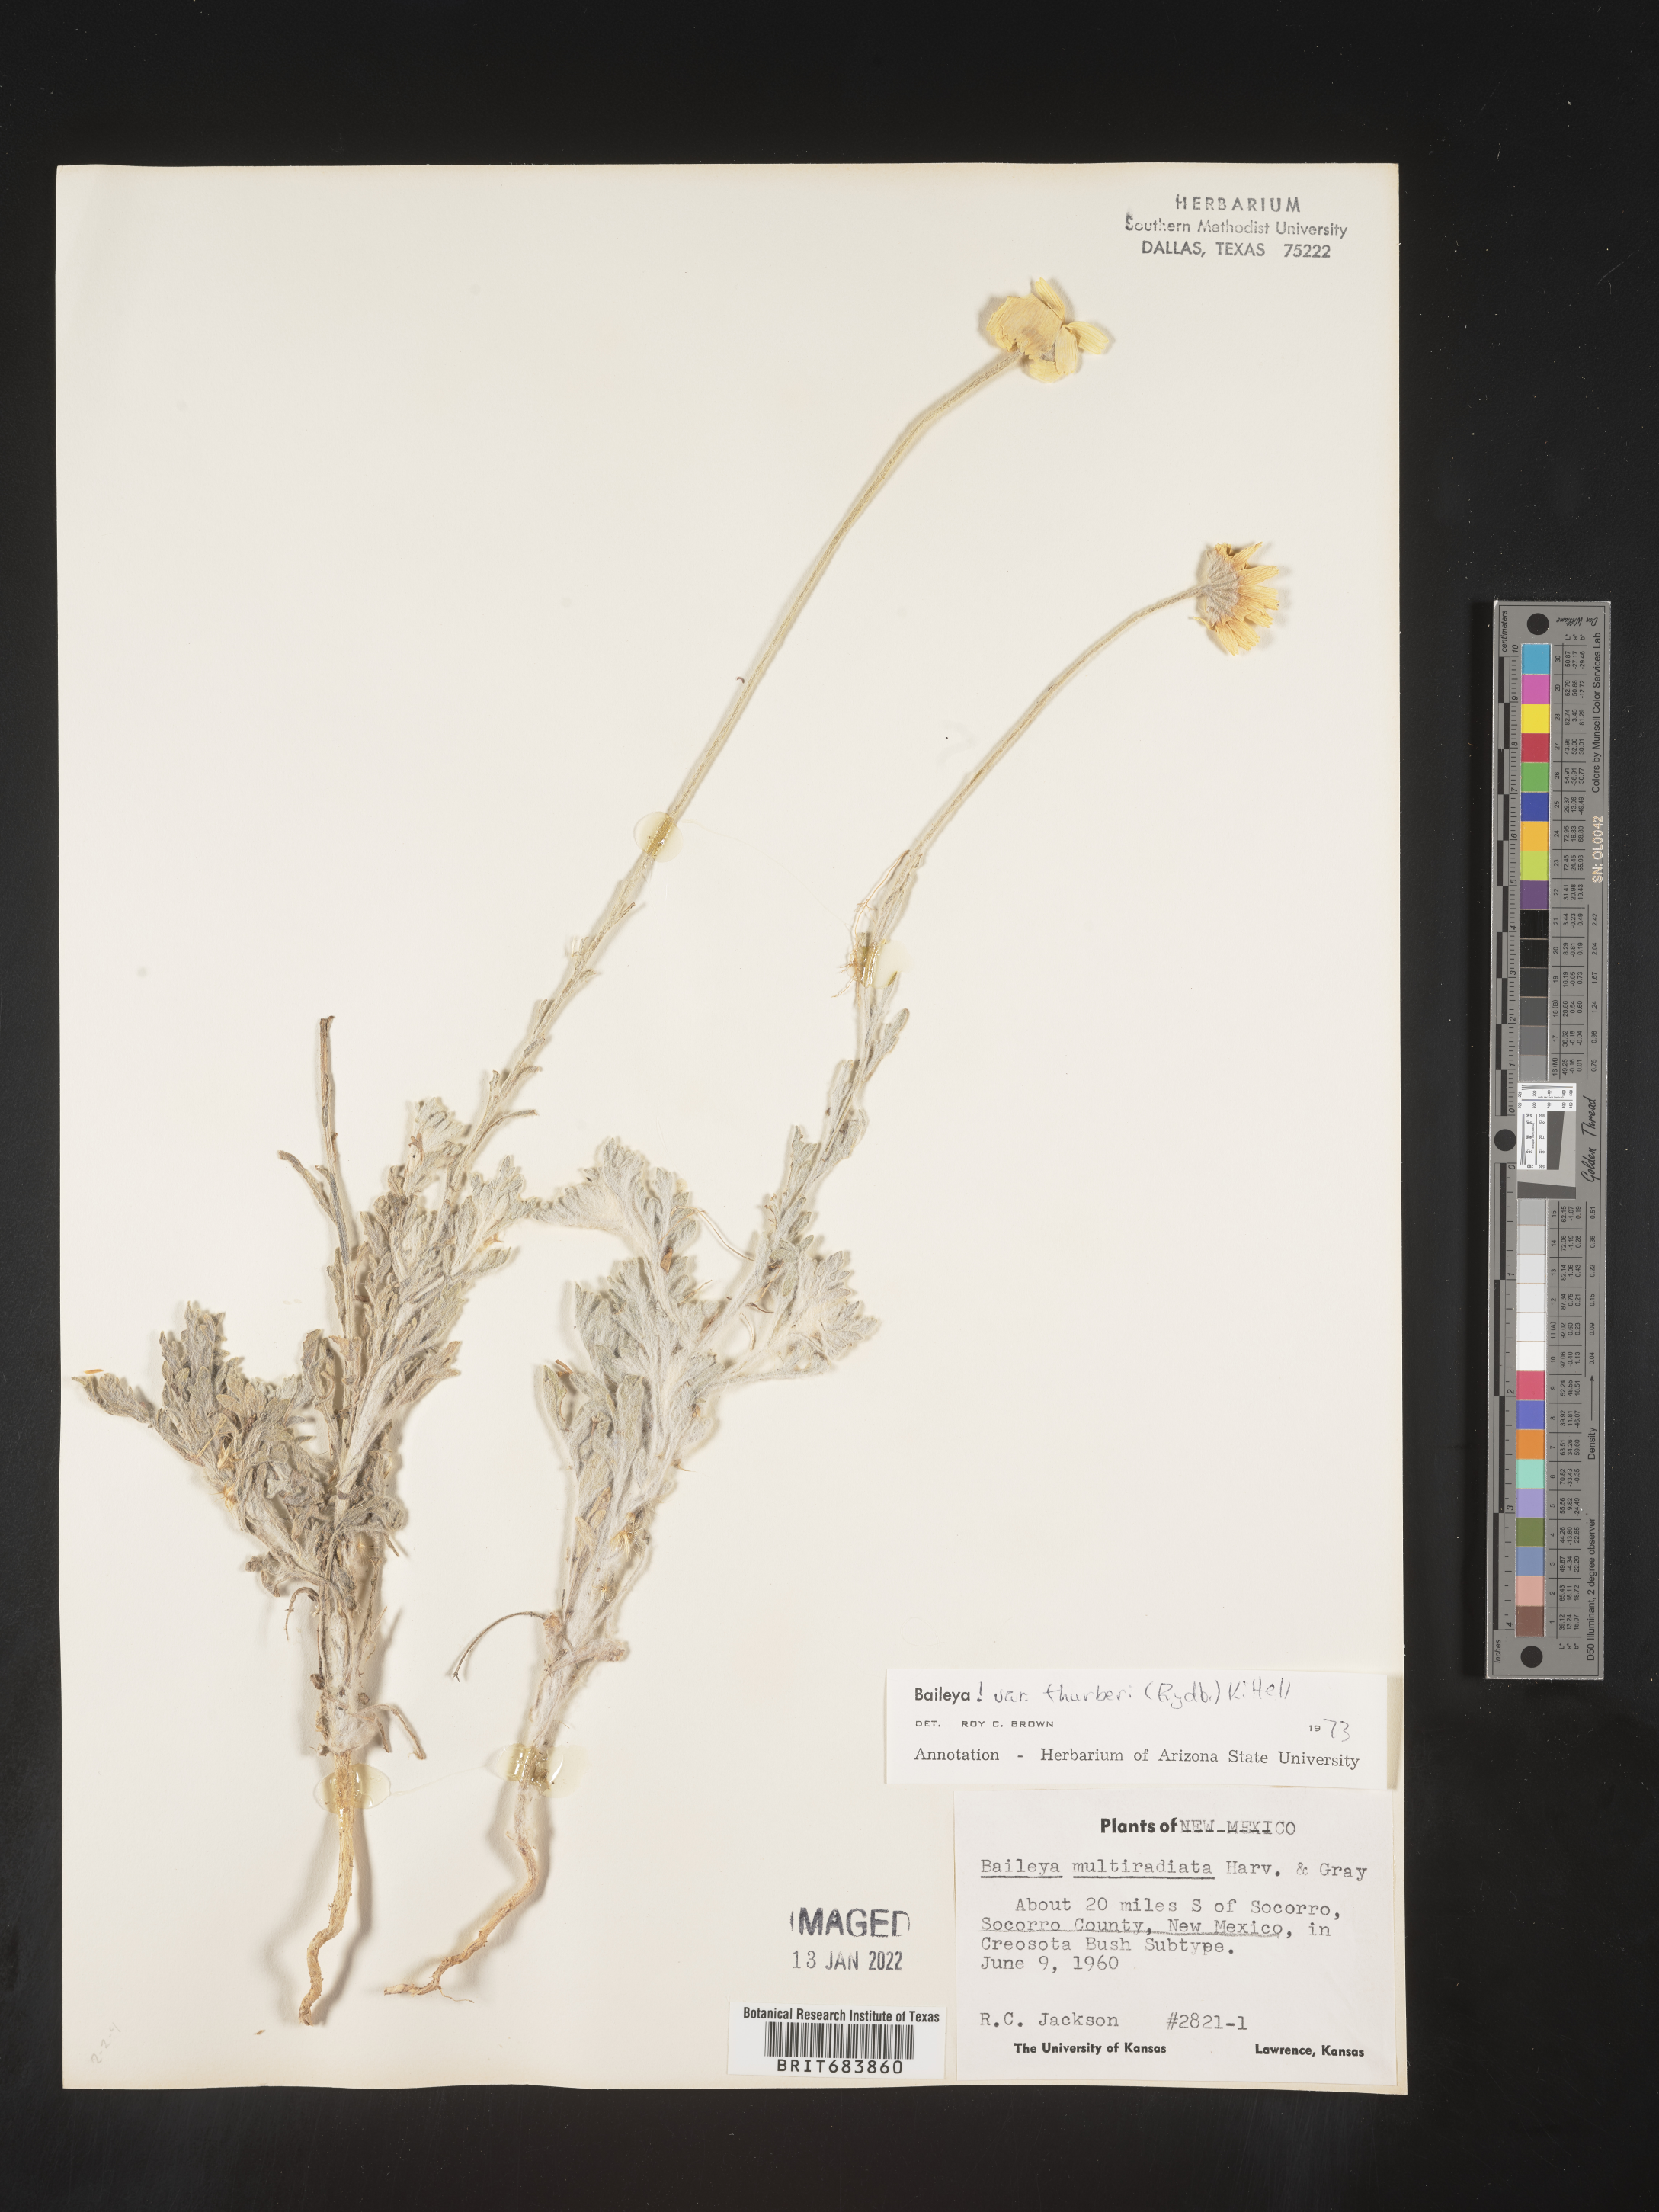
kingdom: Plantae
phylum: Tracheophyta
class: Magnoliopsida
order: Asterales
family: Asteraceae
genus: Baileya
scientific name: Baileya multiradiata
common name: Desert-marigold
